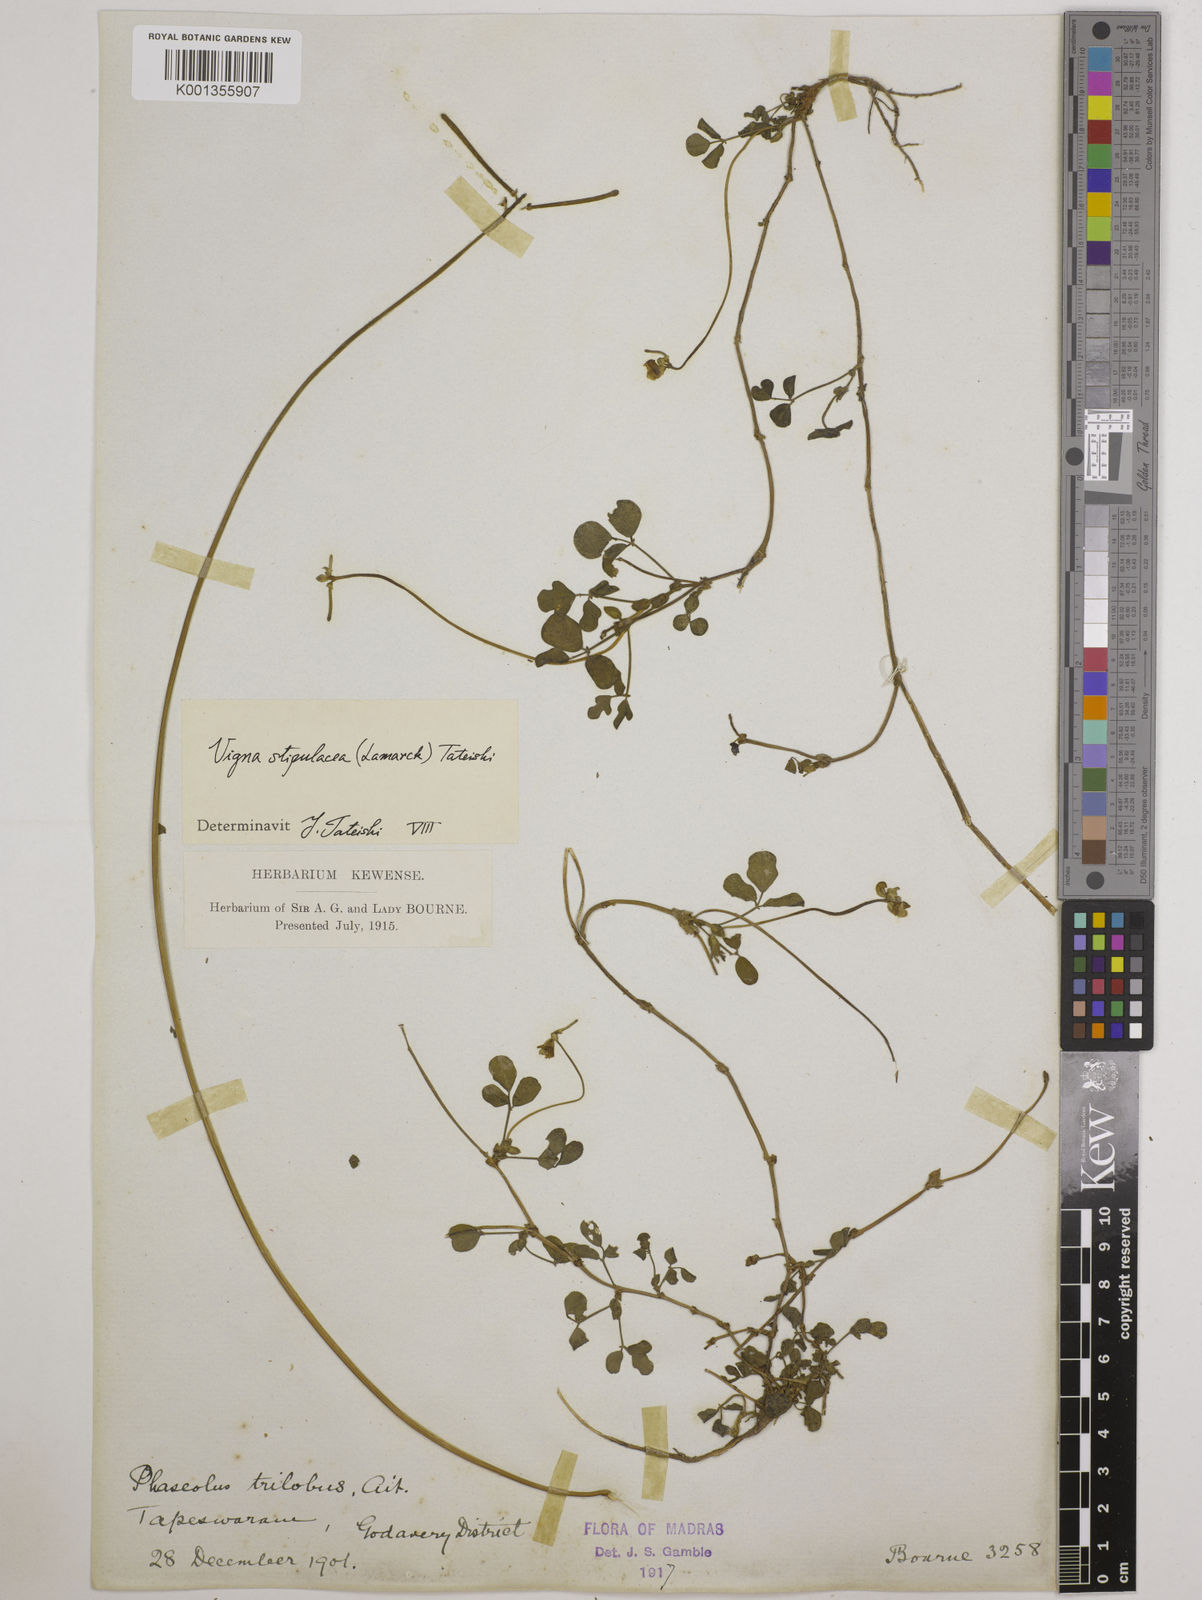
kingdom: Plantae
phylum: Tracheophyta
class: Magnoliopsida
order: Fabales
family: Fabaceae
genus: Pueraria
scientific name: Pueraria montana
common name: Kudzu
